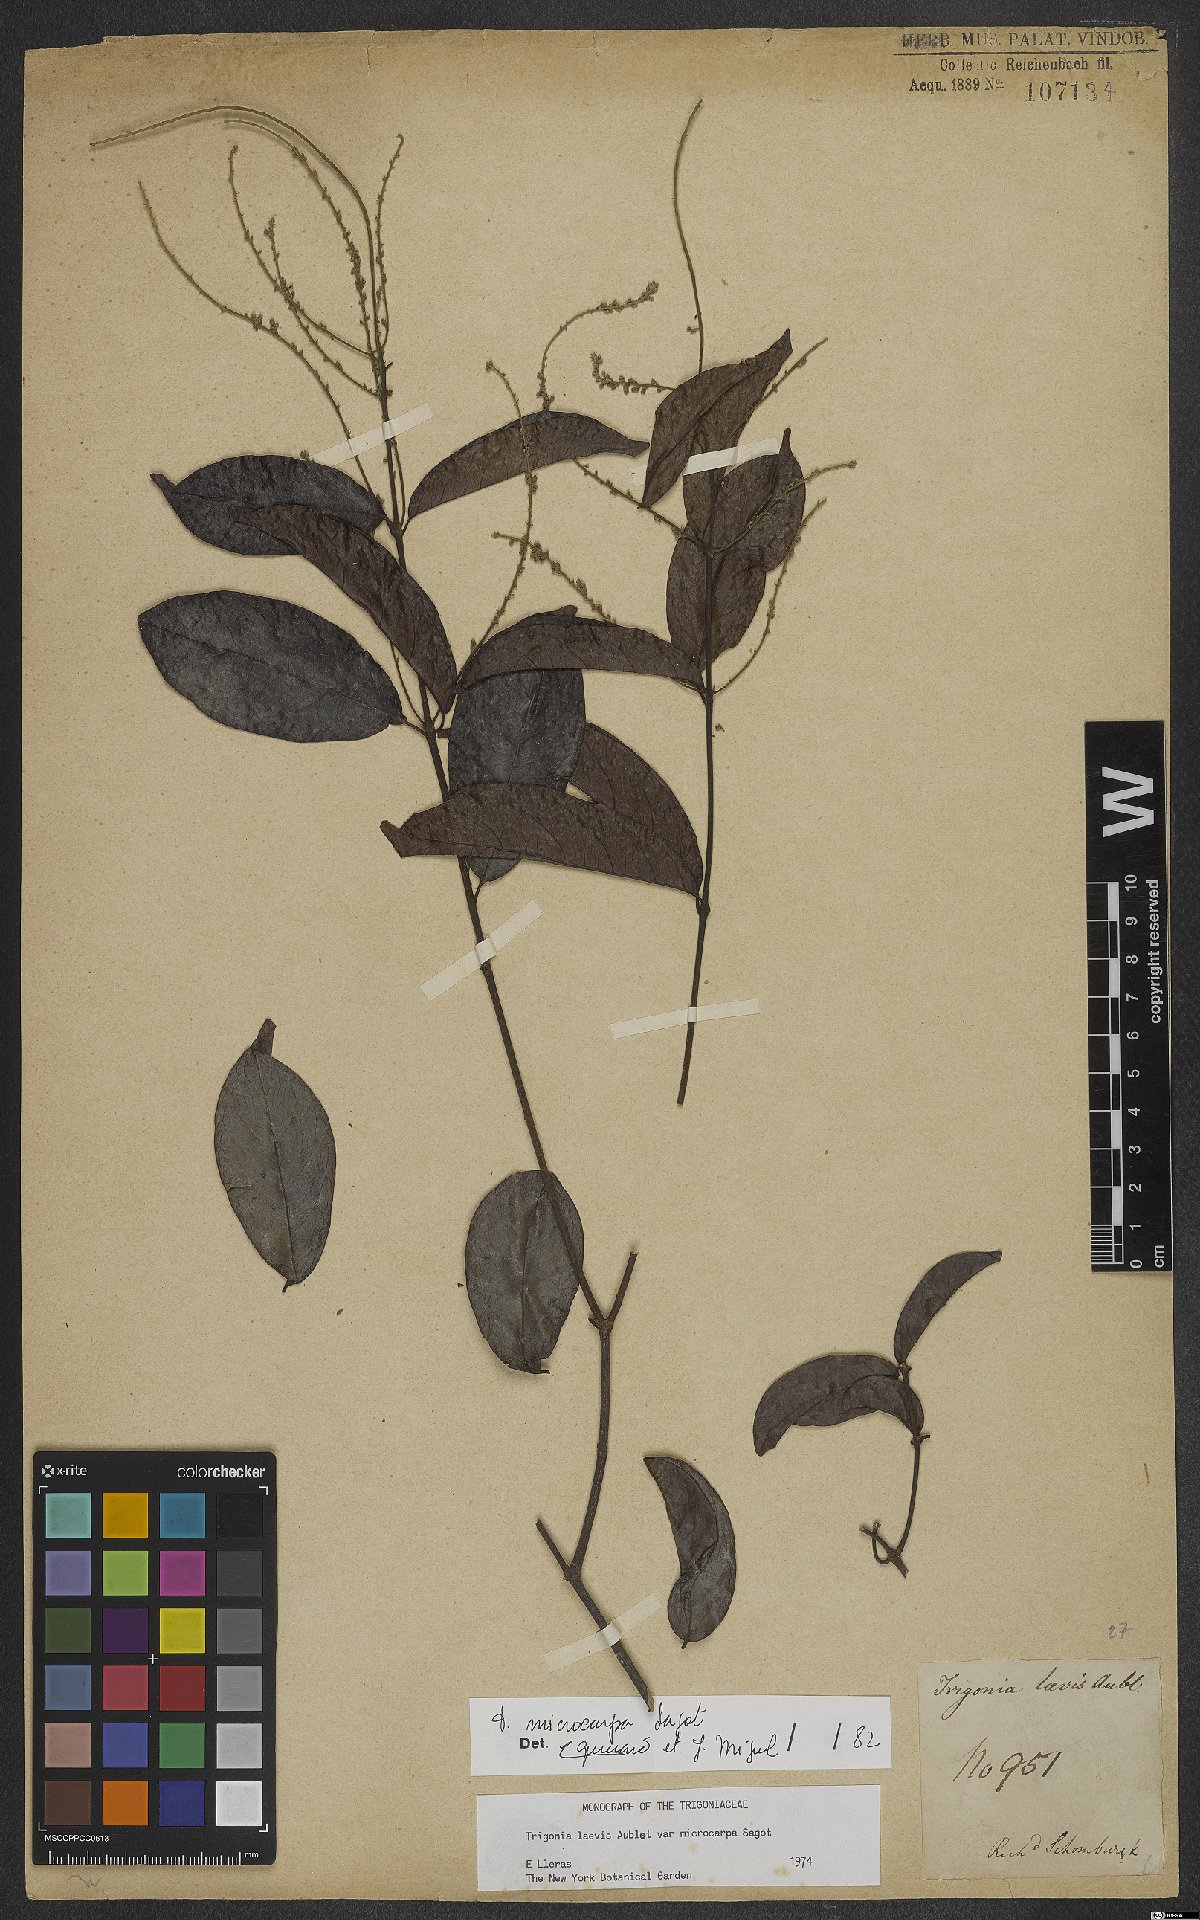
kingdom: Plantae
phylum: Tracheophyta
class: Magnoliopsida
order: Malpighiales
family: Trigoniaceae
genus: Trigonia
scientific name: Trigonia microcarpa
